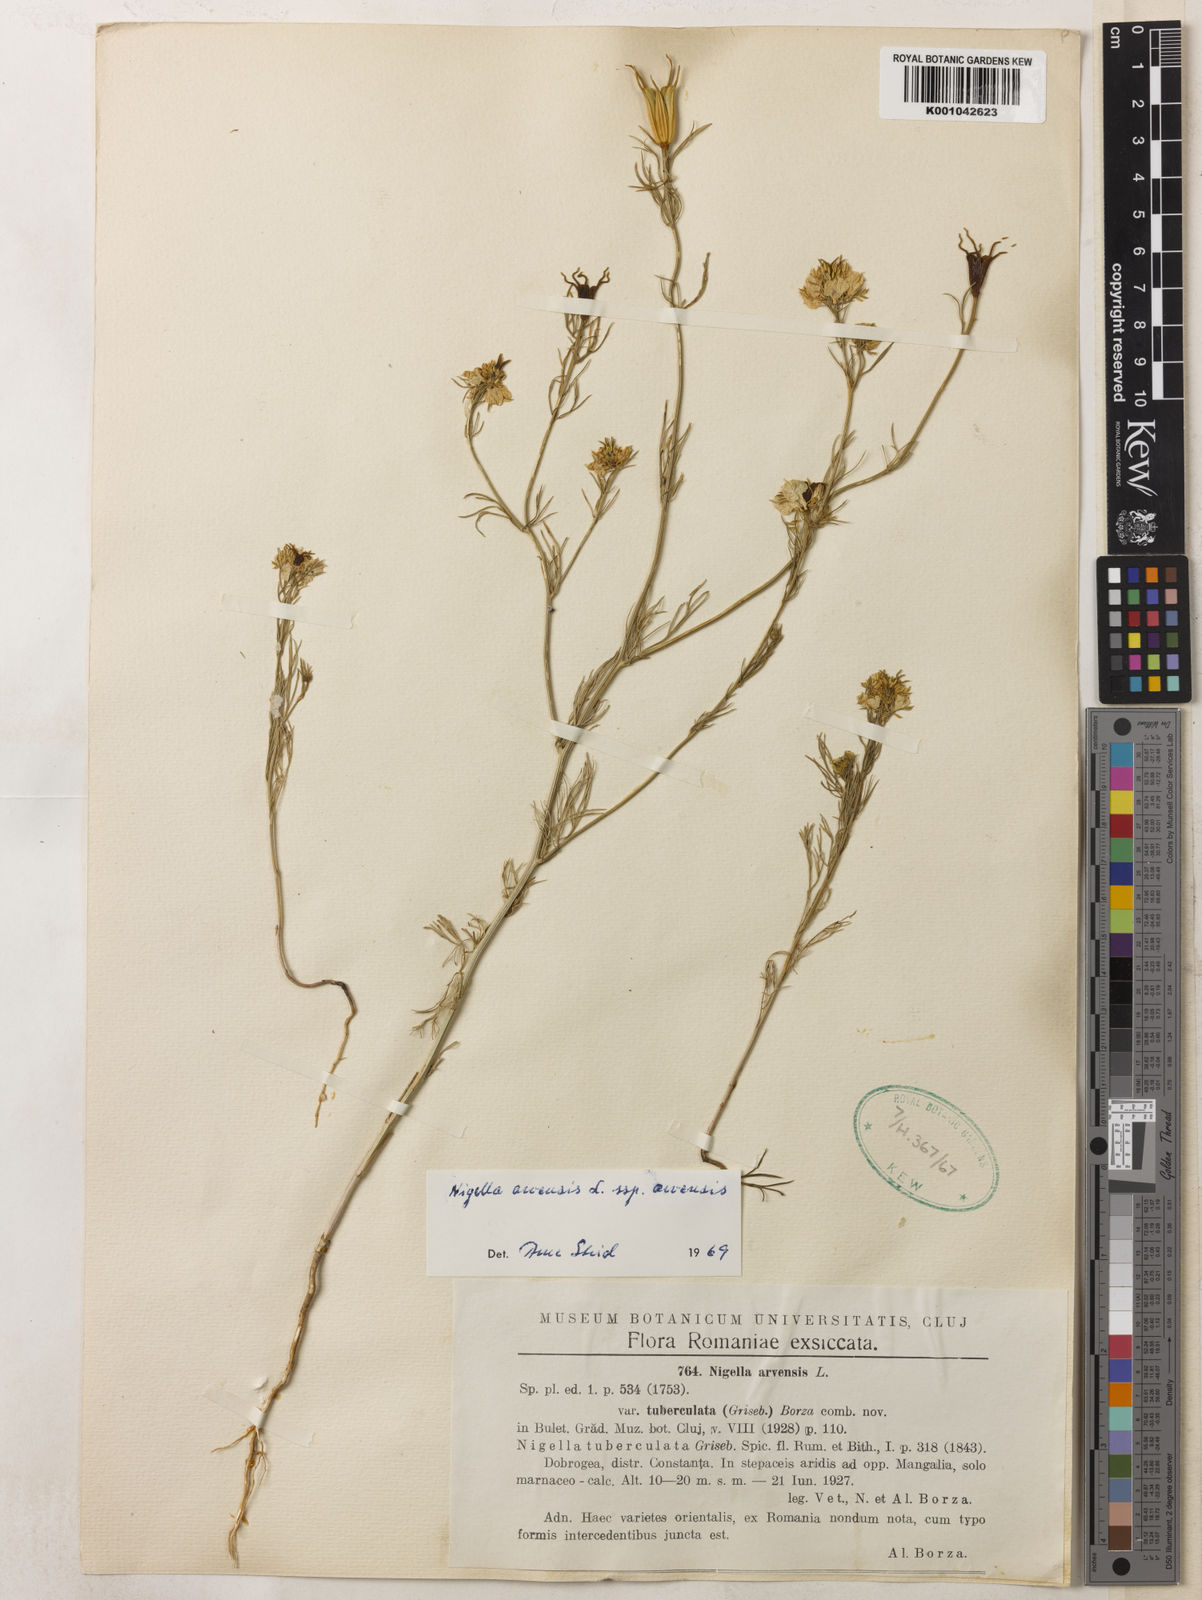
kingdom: Plantae
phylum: Tracheophyta
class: Magnoliopsida
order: Ranunculales
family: Ranunculaceae
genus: Nigella
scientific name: Nigella arvensis
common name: Wild fennel-flower
